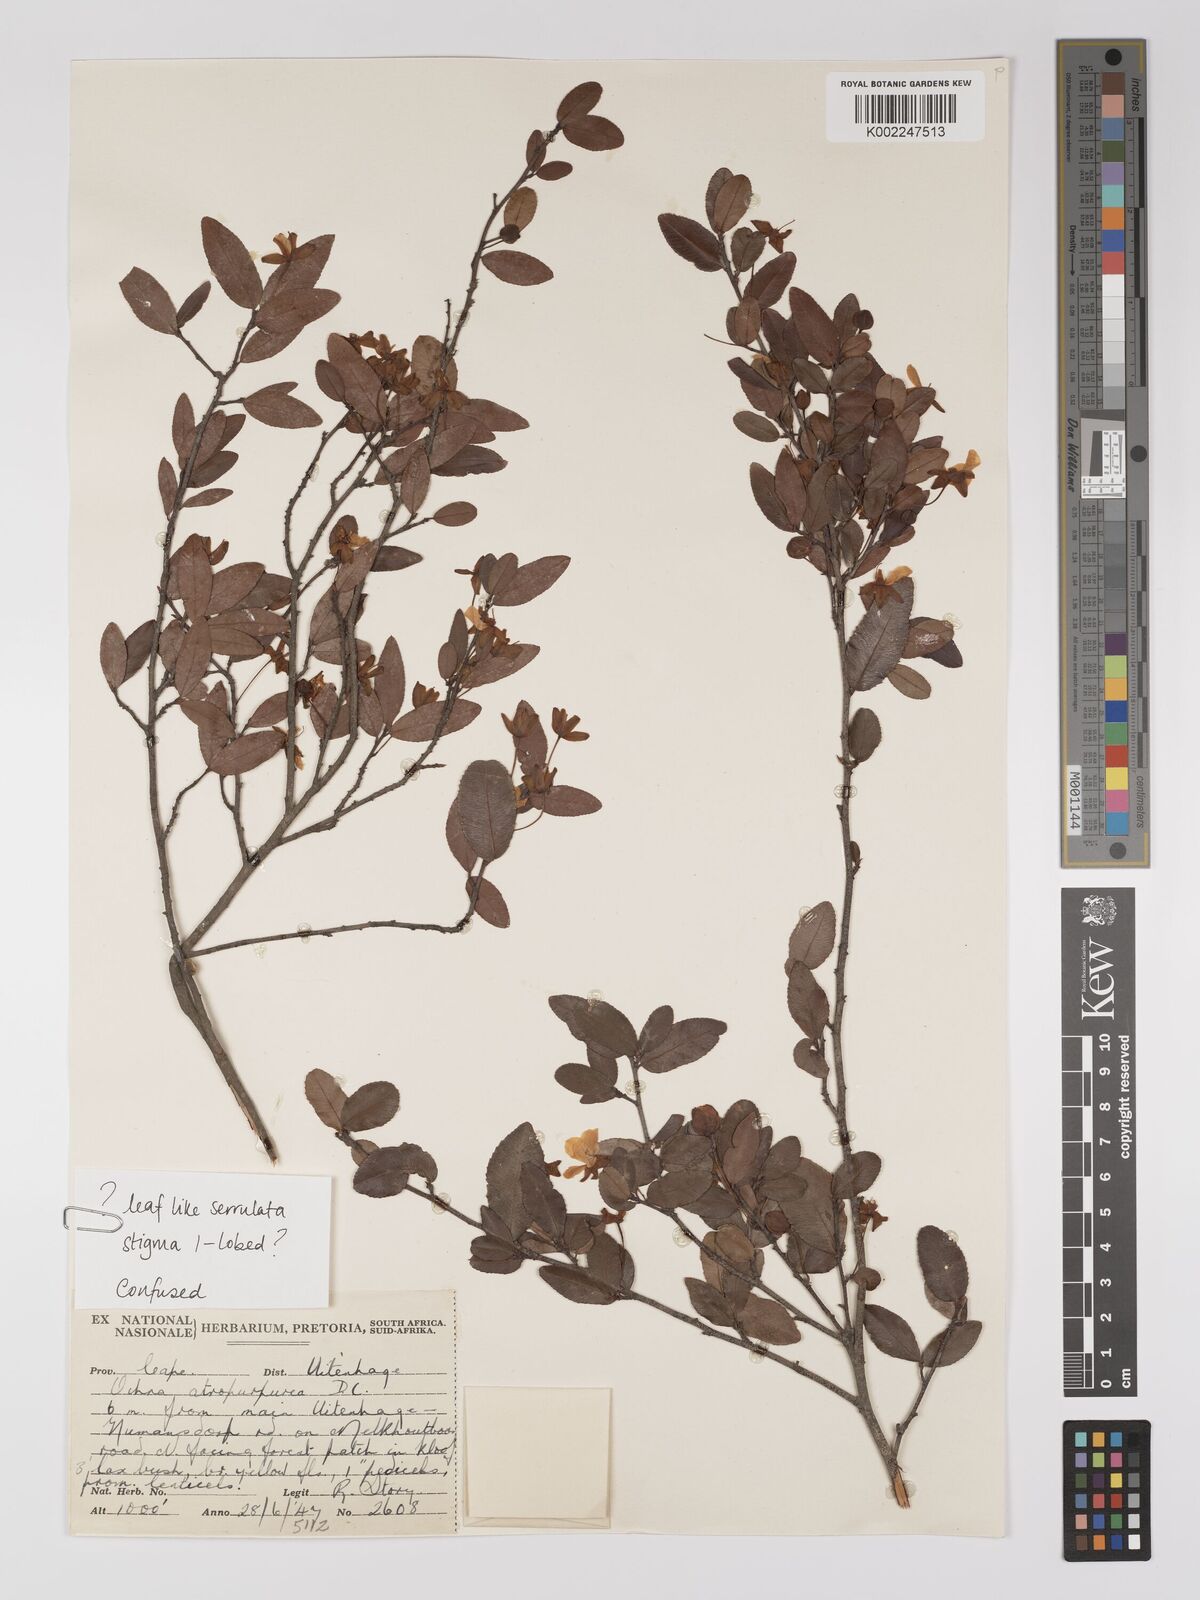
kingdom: Plantae
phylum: Tracheophyta
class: Magnoliopsida
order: Malpighiales
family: Ochnaceae
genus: Ochna
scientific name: Ochna serrulata
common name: Mickey mouse plant
